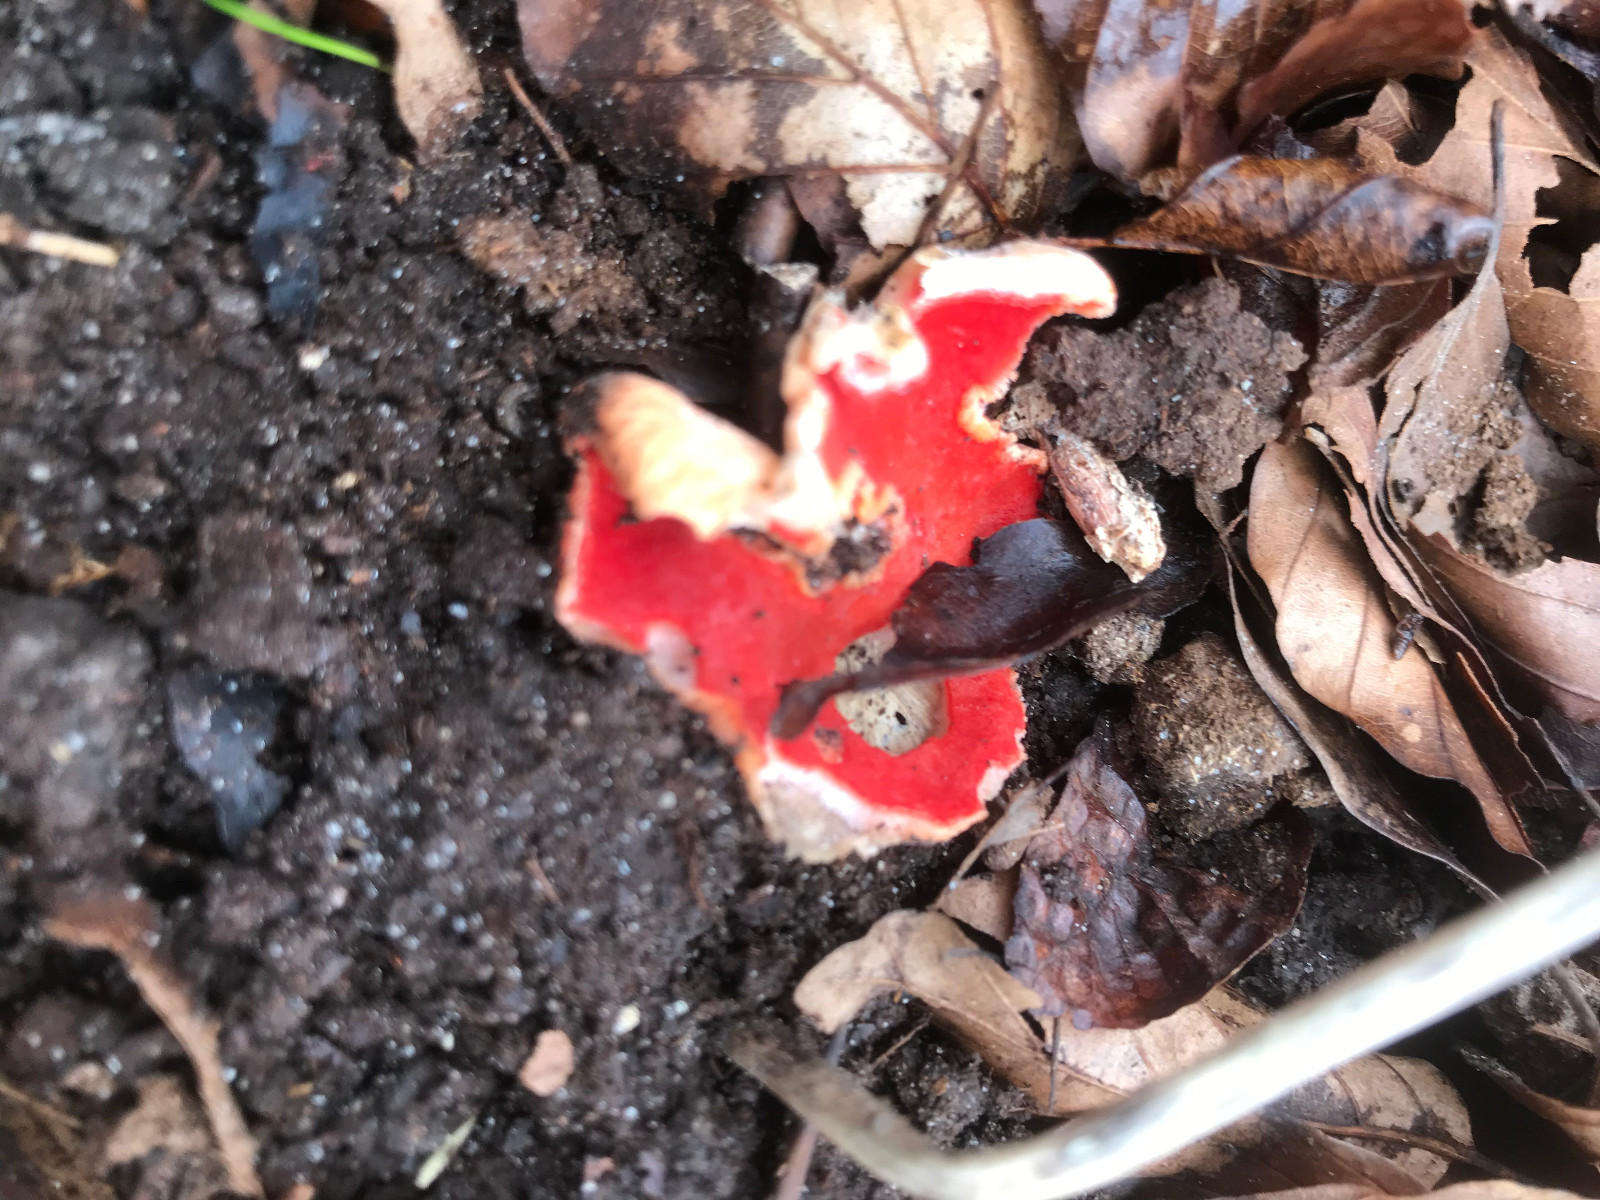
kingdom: Fungi
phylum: Ascomycota
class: Pezizomycetes
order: Pezizales
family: Sarcoscyphaceae
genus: Sarcoscypha
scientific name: Sarcoscypha coccinea
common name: skarlagen-pragtbæger
